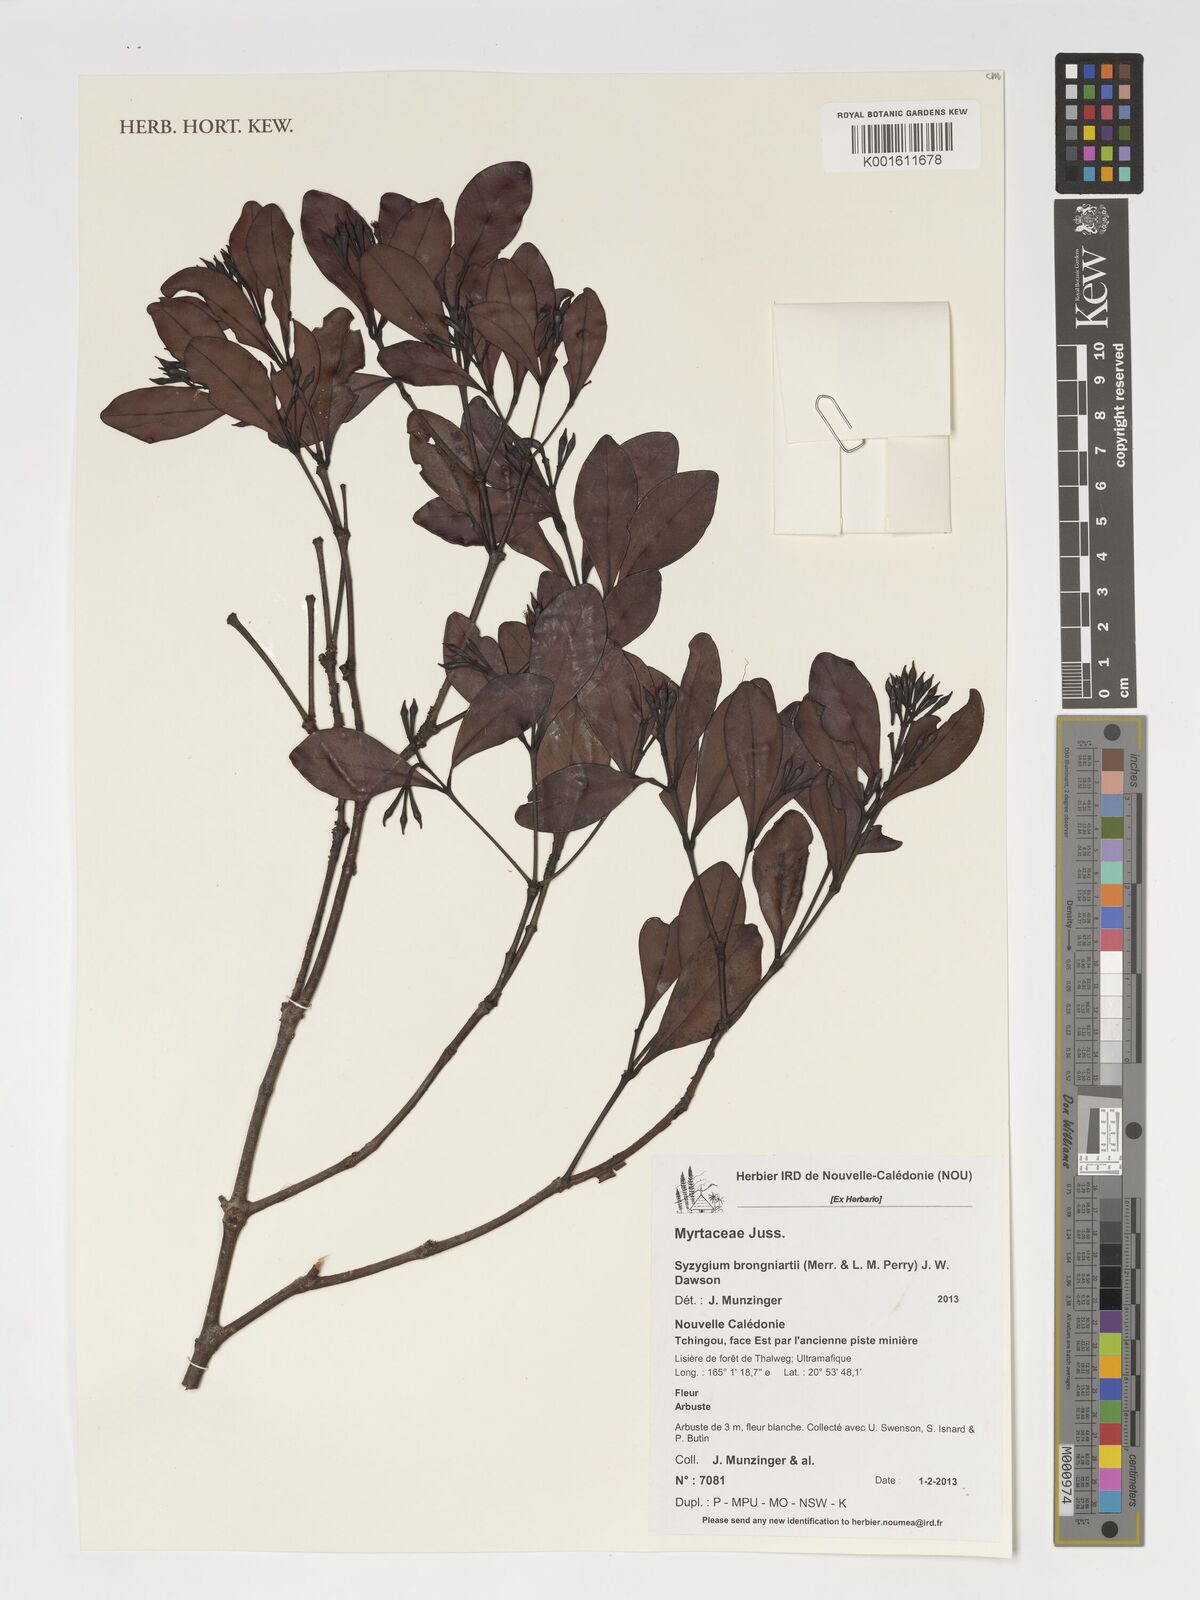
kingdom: Plantae
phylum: Tracheophyta
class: Magnoliopsida
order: Myrtales
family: Myrtaceae
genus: Syzygium
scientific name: Syzygium brongniartii
